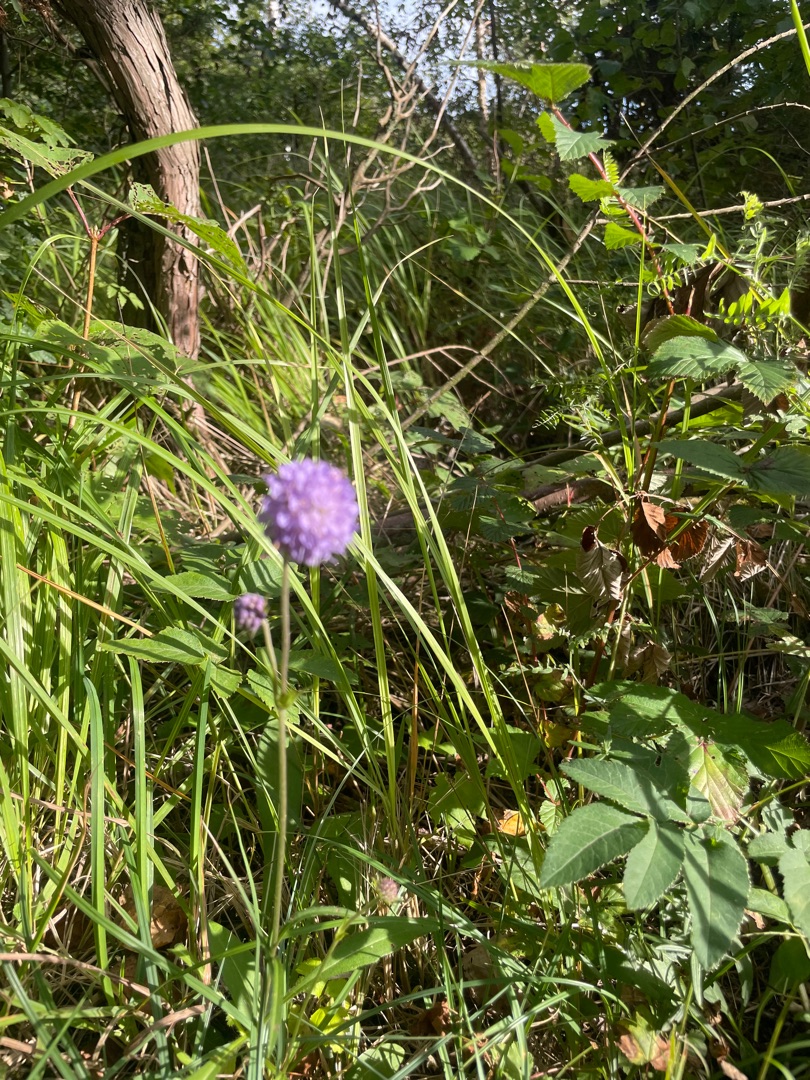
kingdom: Plantae
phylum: Tracheophyta
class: Magnoliopsida
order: Dipsacales
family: Caprifoliaceae
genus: Succisa
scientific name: Succisa pratensis
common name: Djævelsbid
